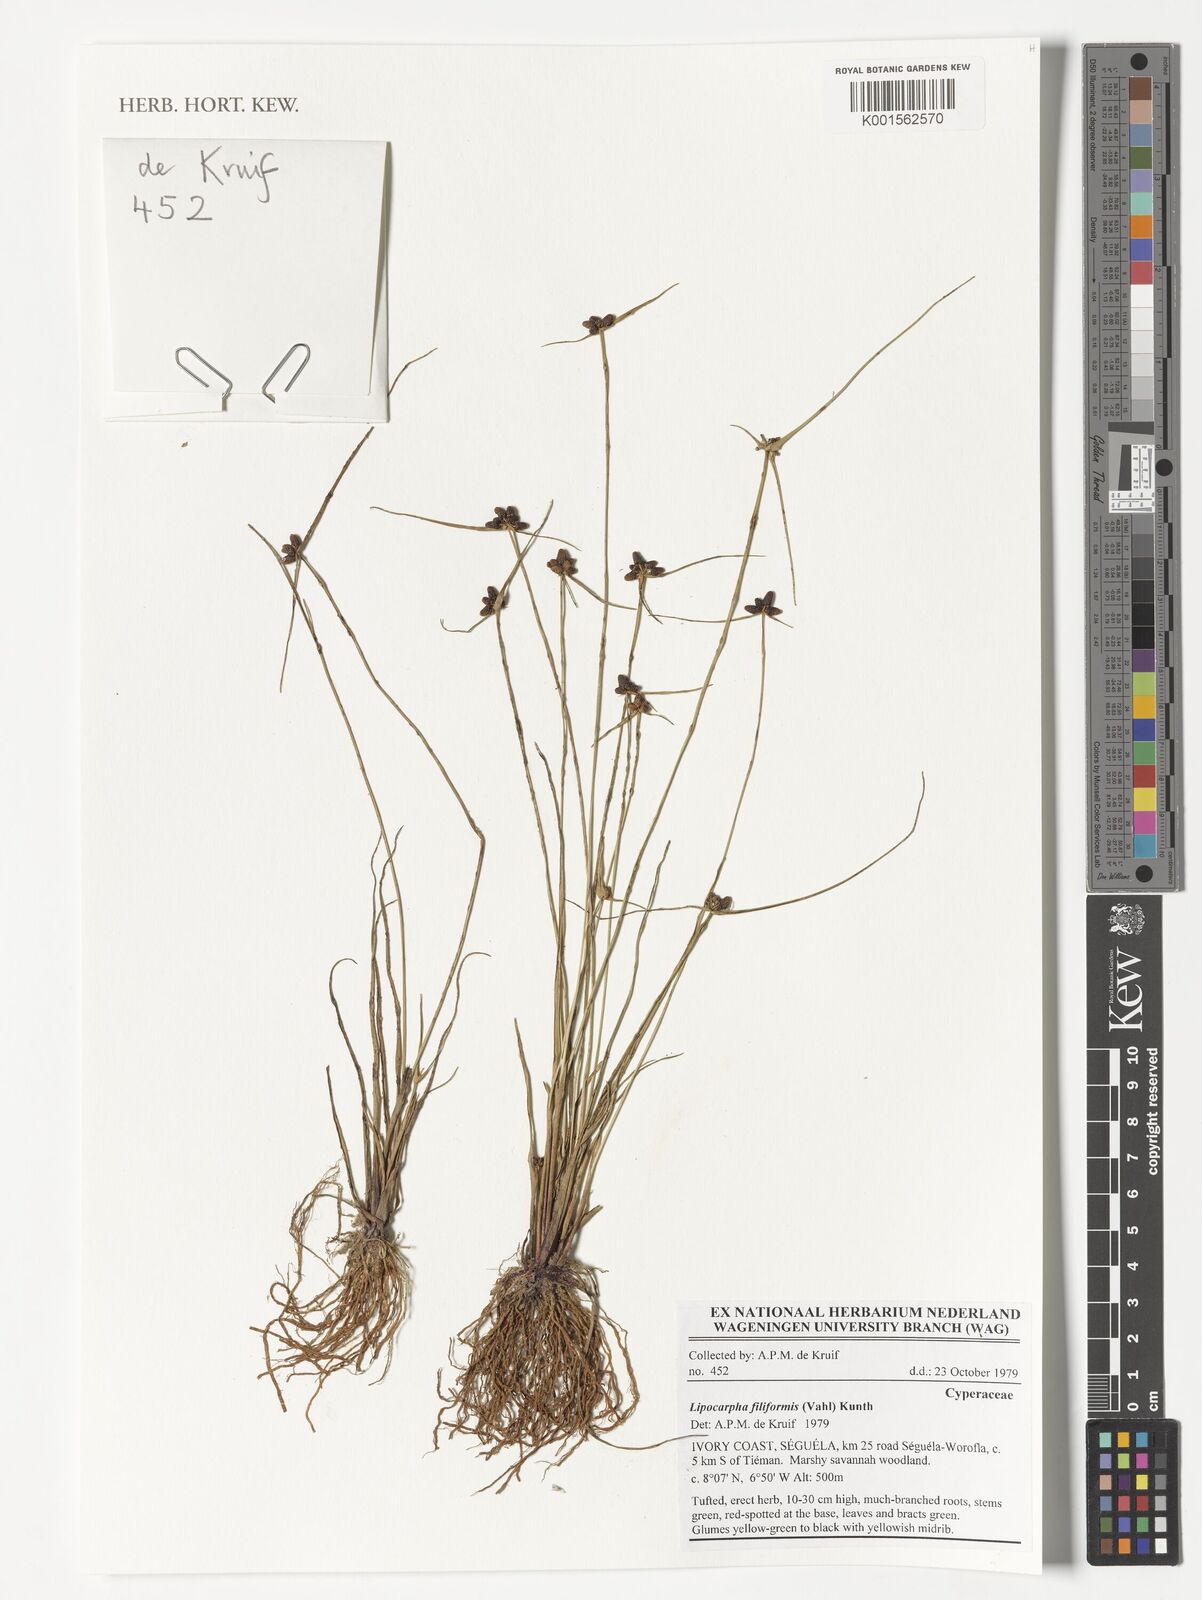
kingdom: Plantae
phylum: Tracheophyta
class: Liliopsida
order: Poales
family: Cyperaceae
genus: Cyperus
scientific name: Cyperus lipofiliformis
